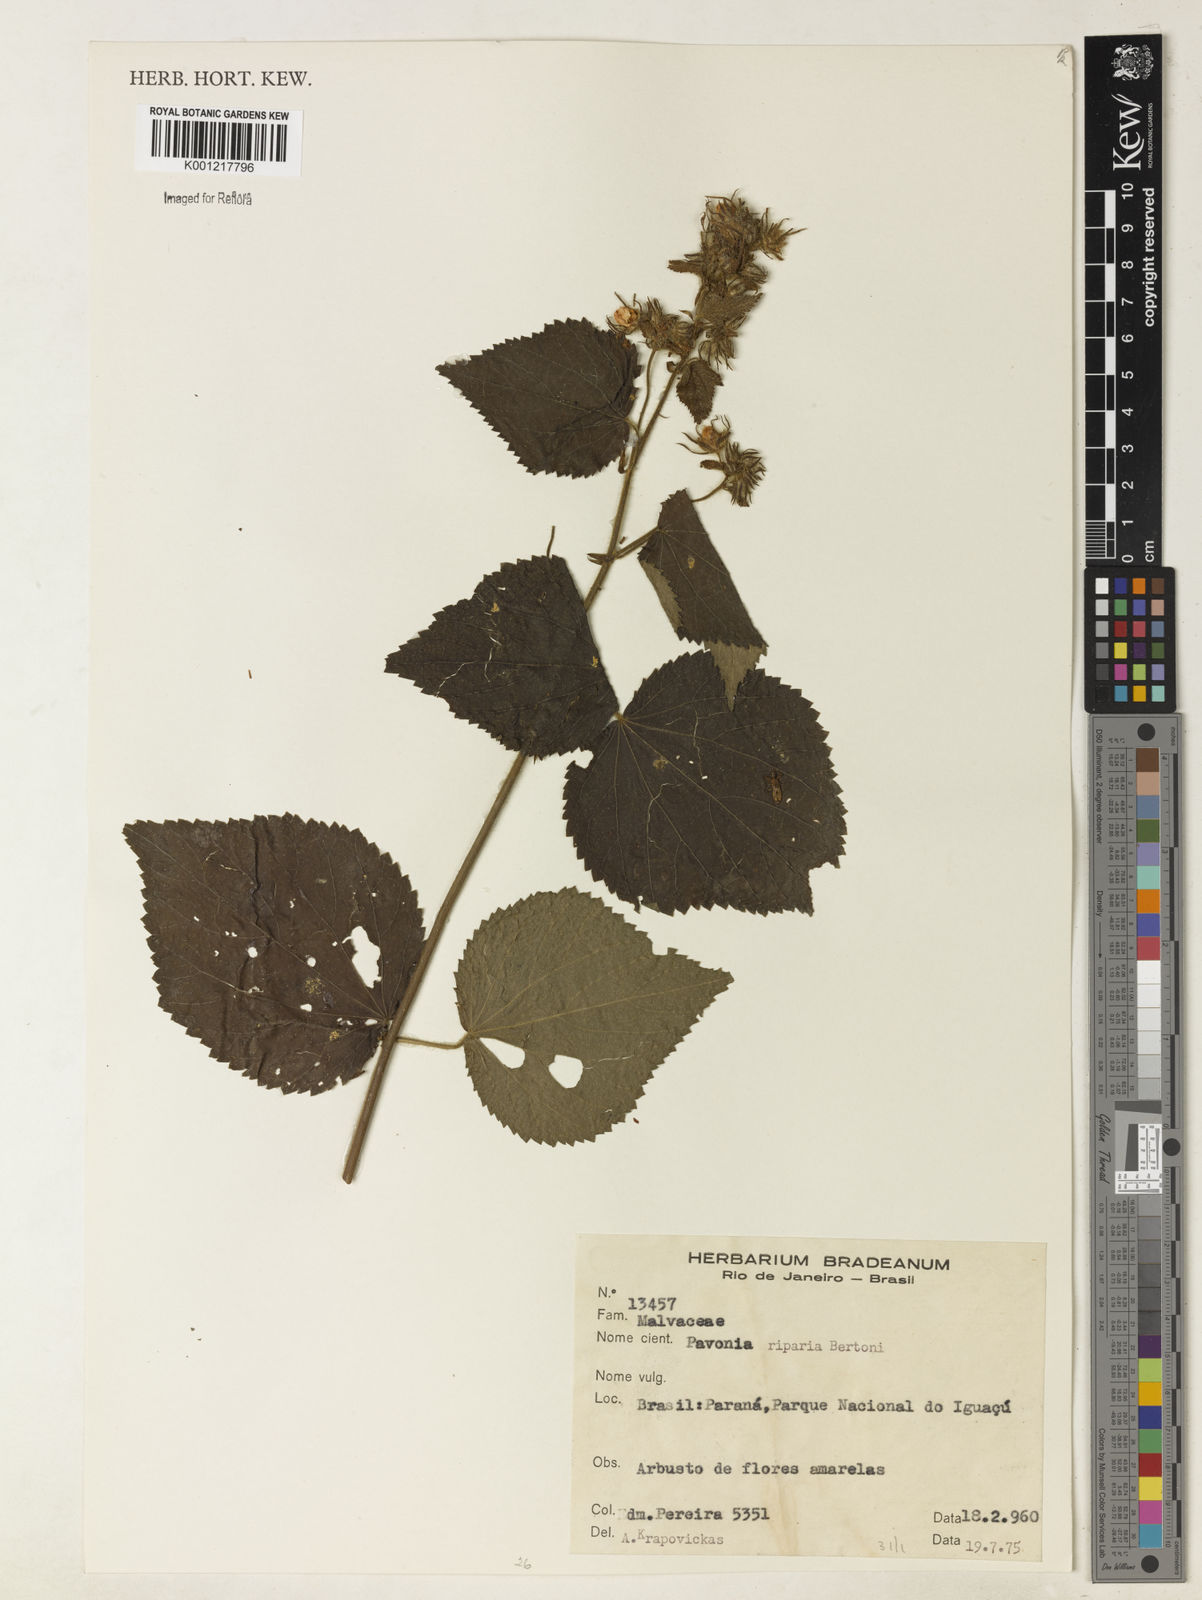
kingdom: Plantae
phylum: Tracheophyta
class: Magnoliopsida
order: Malvales
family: Malvaceae
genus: Pavonia
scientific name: Pavonia
